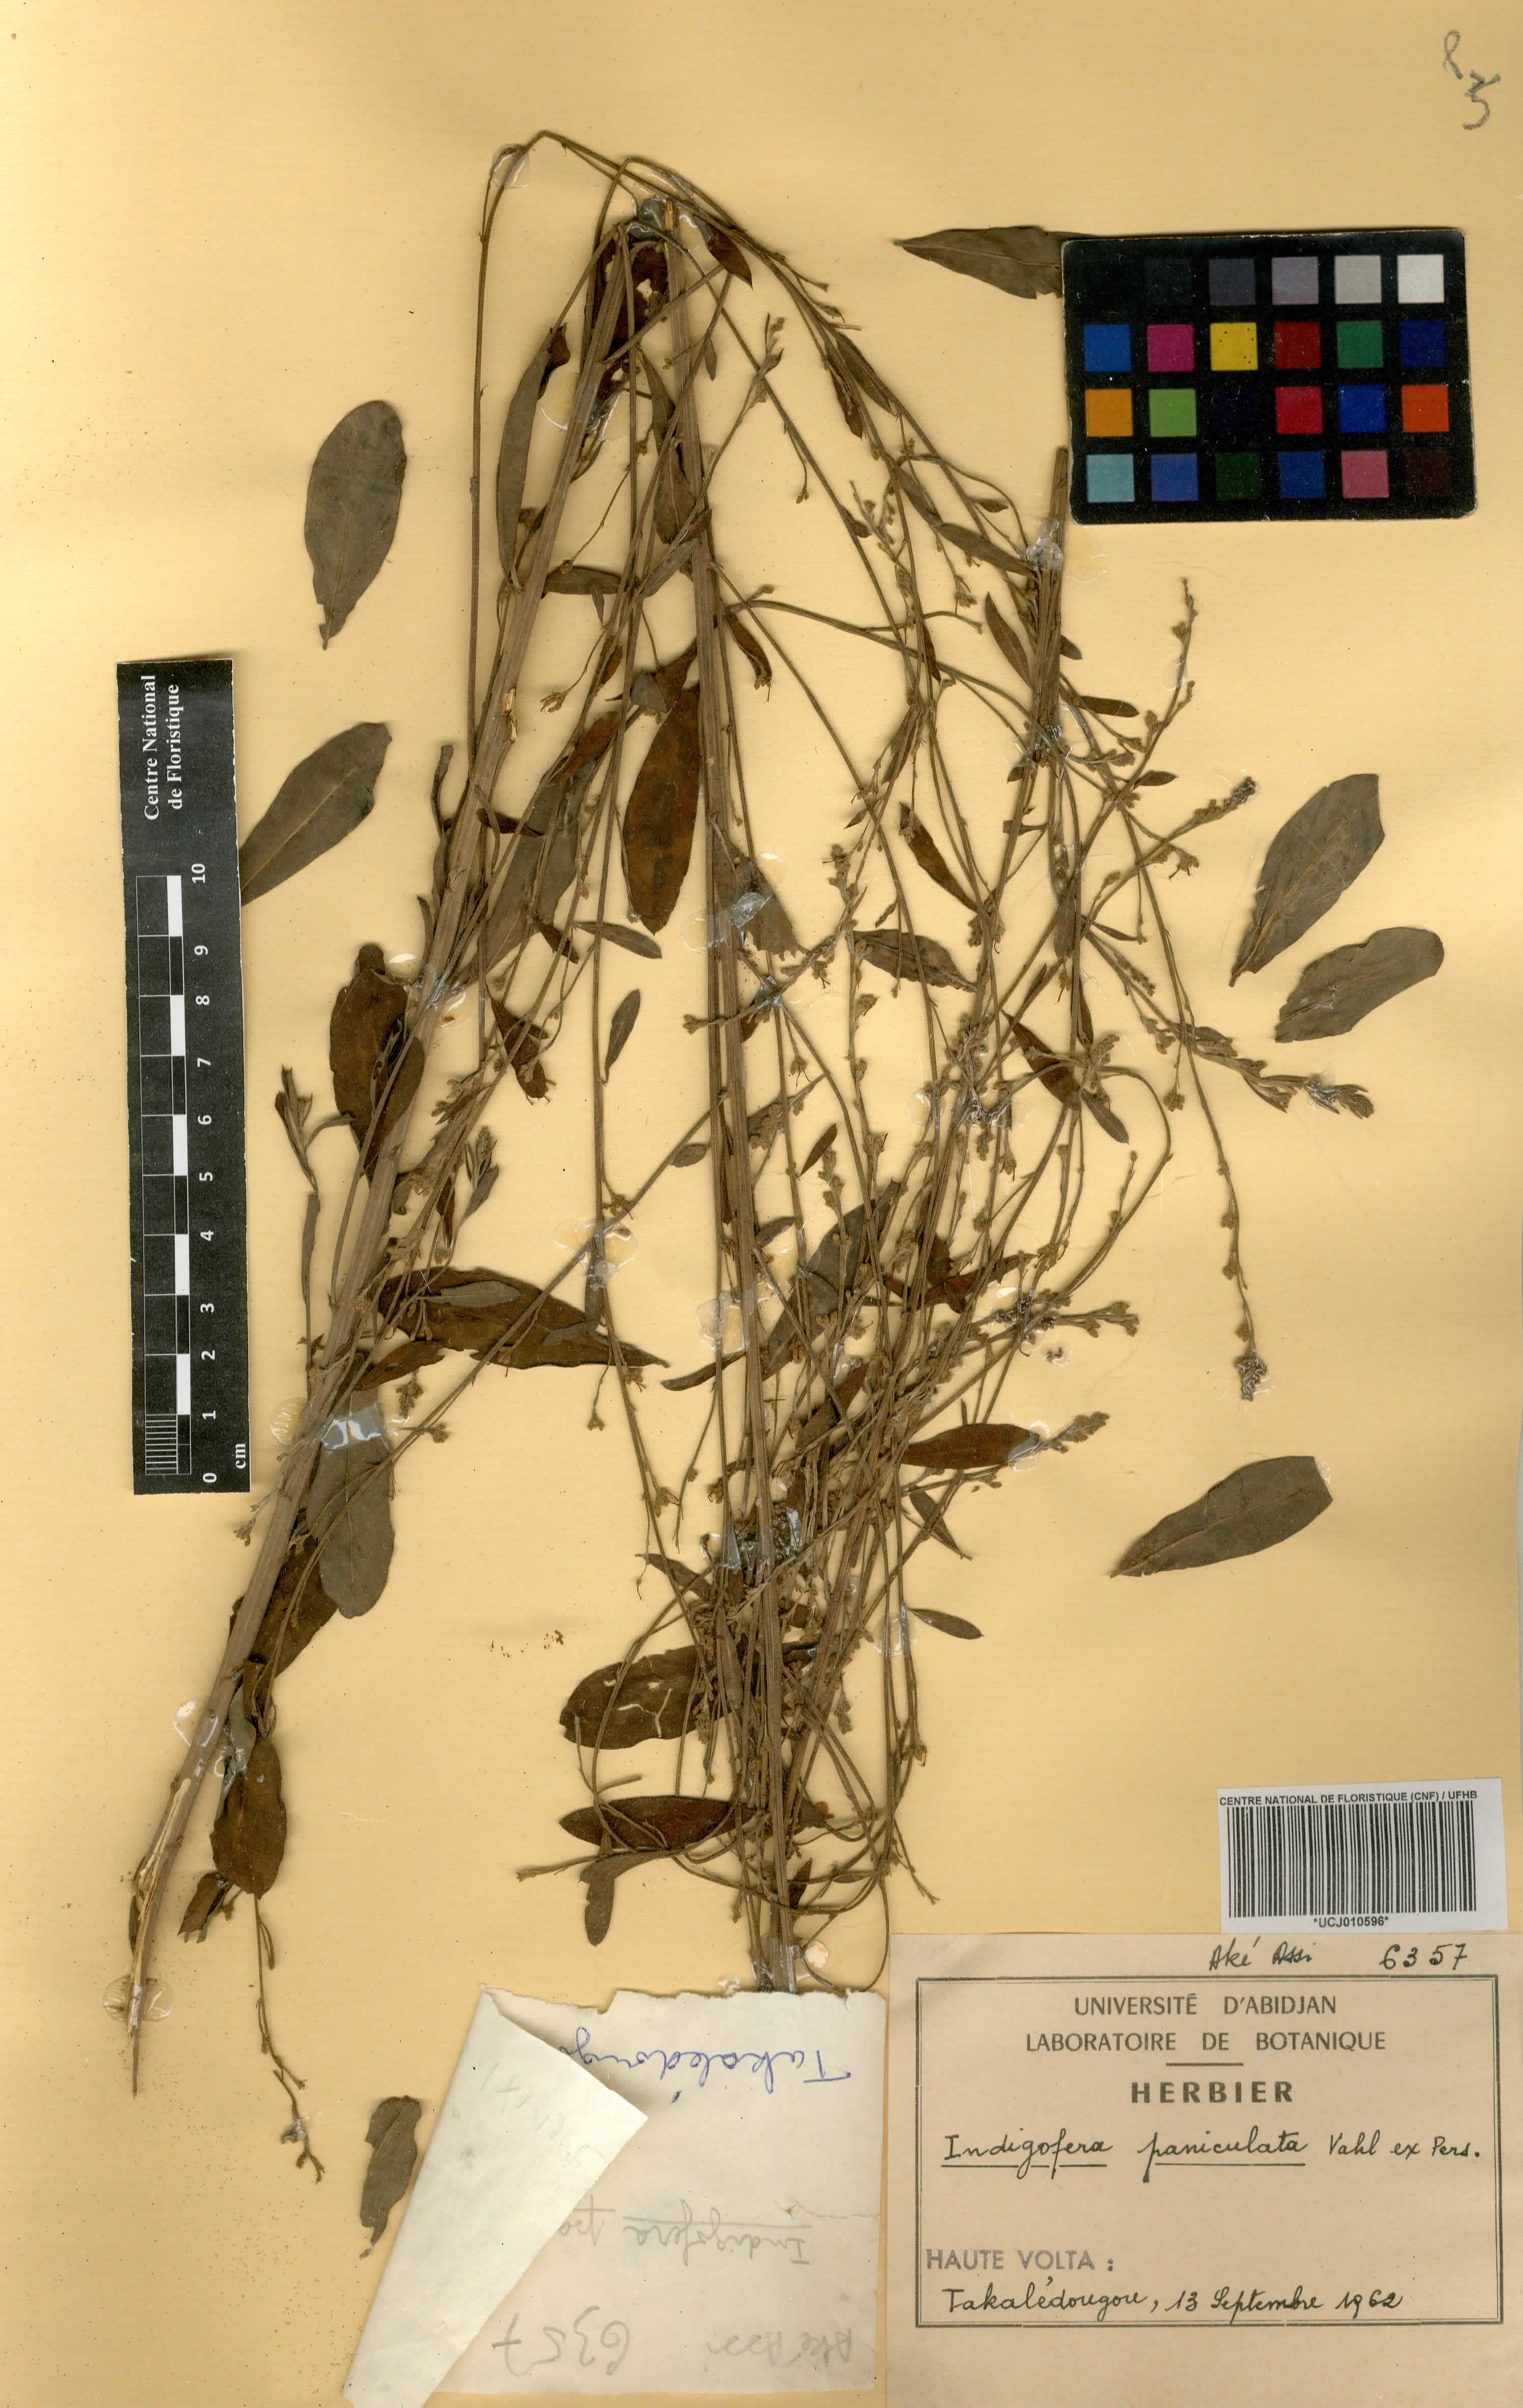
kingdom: Plantae
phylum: Tracheophyta
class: Magnoliopsida
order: Fabales
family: Fabaceae
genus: Indigofera
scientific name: Indigofera paniculata
